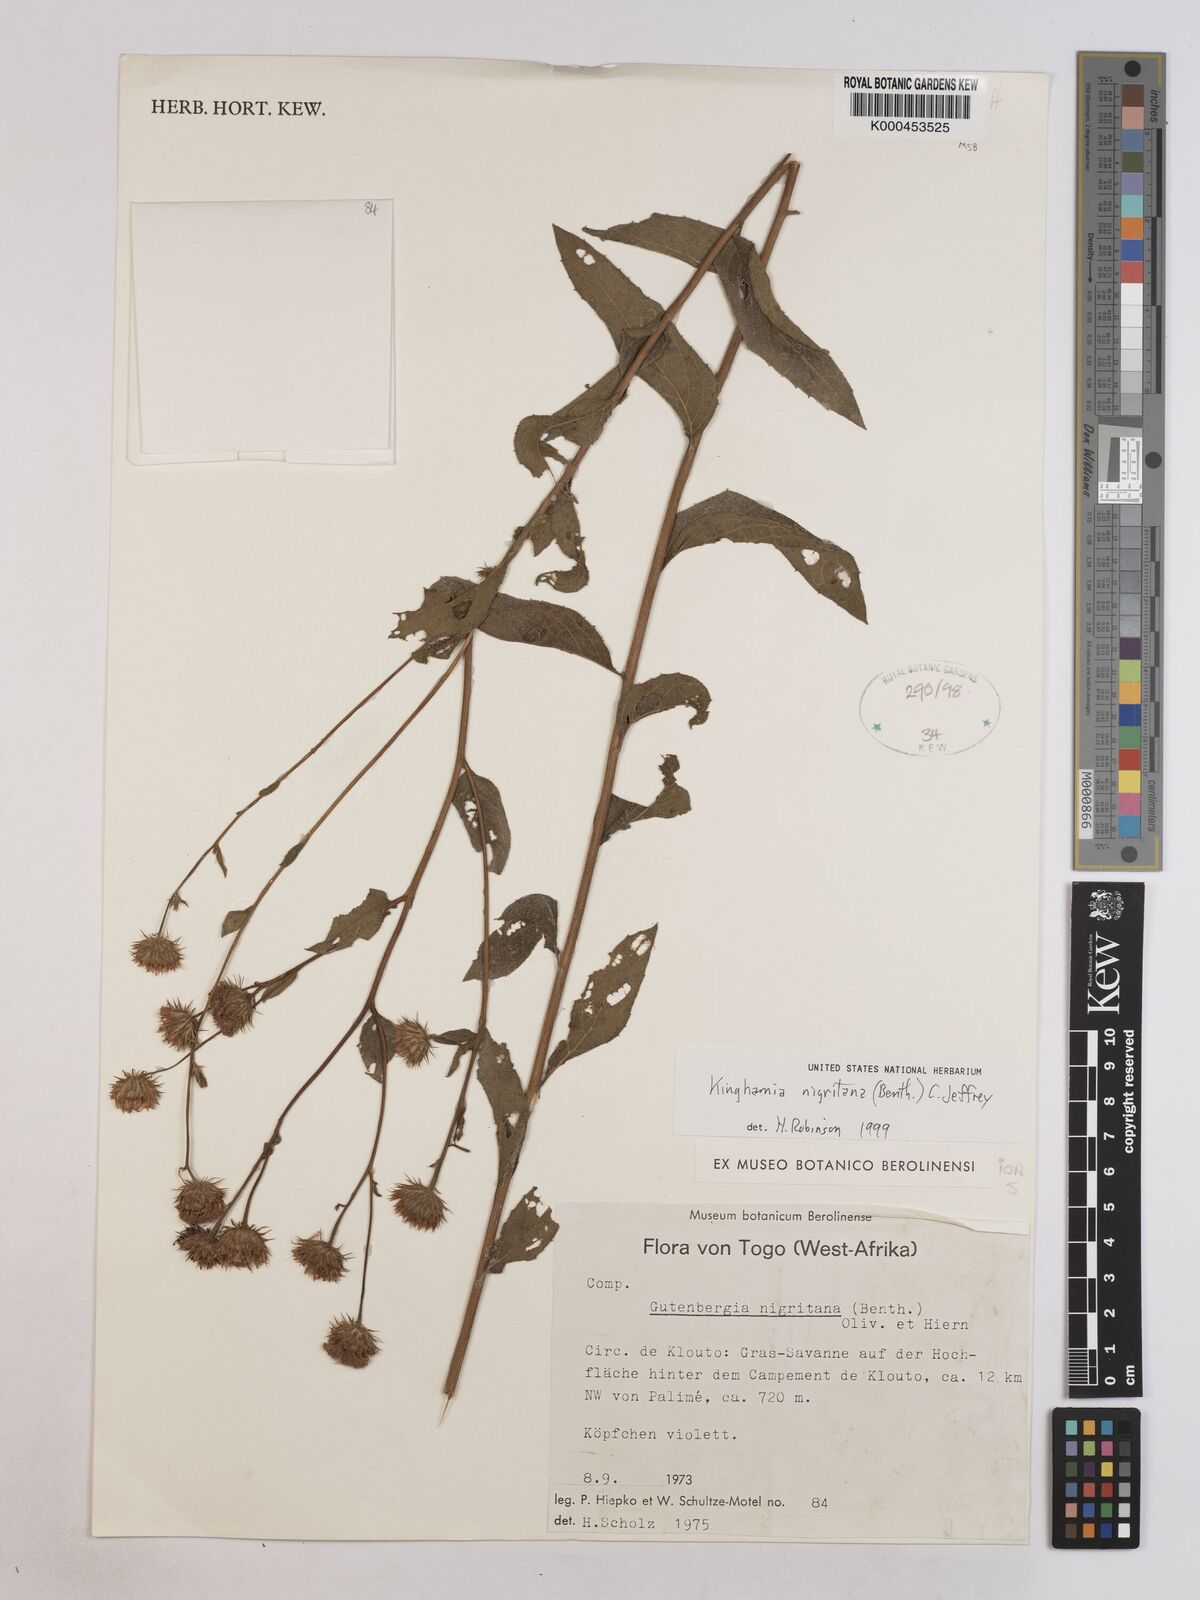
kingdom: Plantae
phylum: Tracheophyta
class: Magnoliopsida
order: Asterales
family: Asteraceae
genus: Kinghamia
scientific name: Kinghamia nigritana
